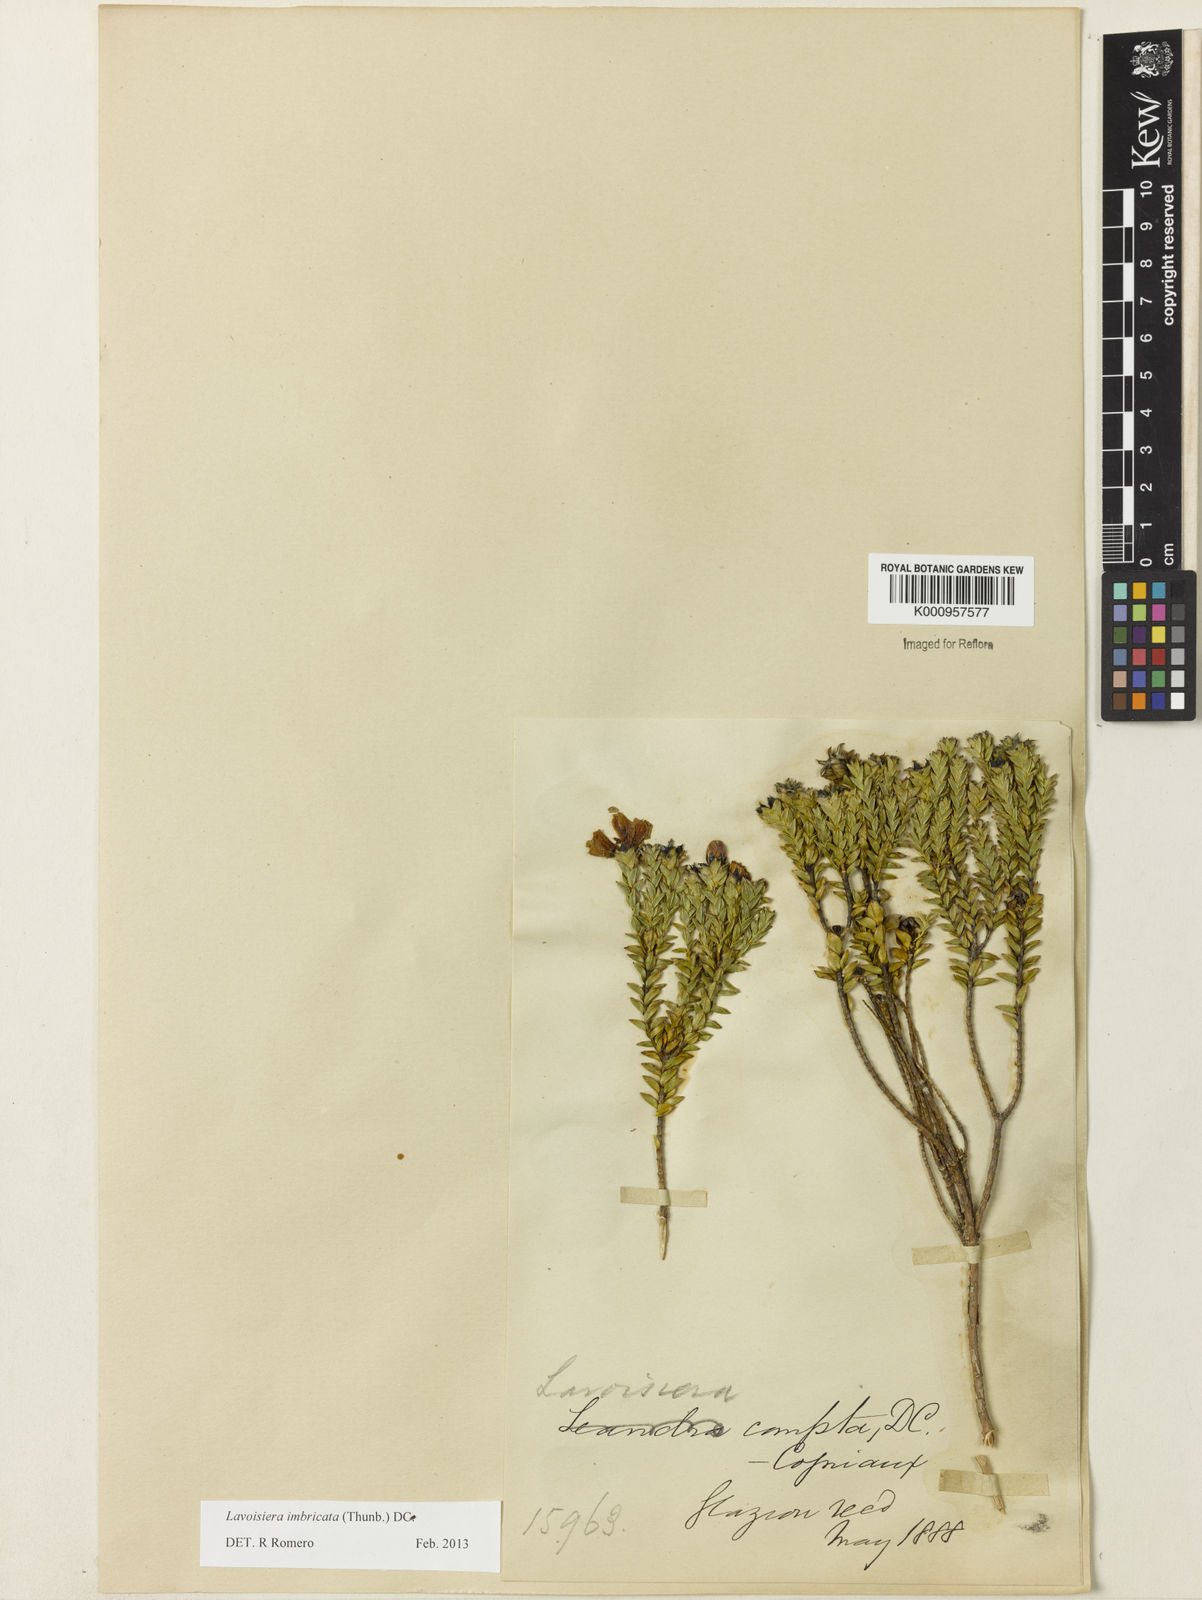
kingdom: Plantae
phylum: Tracheophyta
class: Magnoliopsida
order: Myrtales
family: Melastomataceae
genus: Microlicia
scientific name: Microlicia cataphracta
